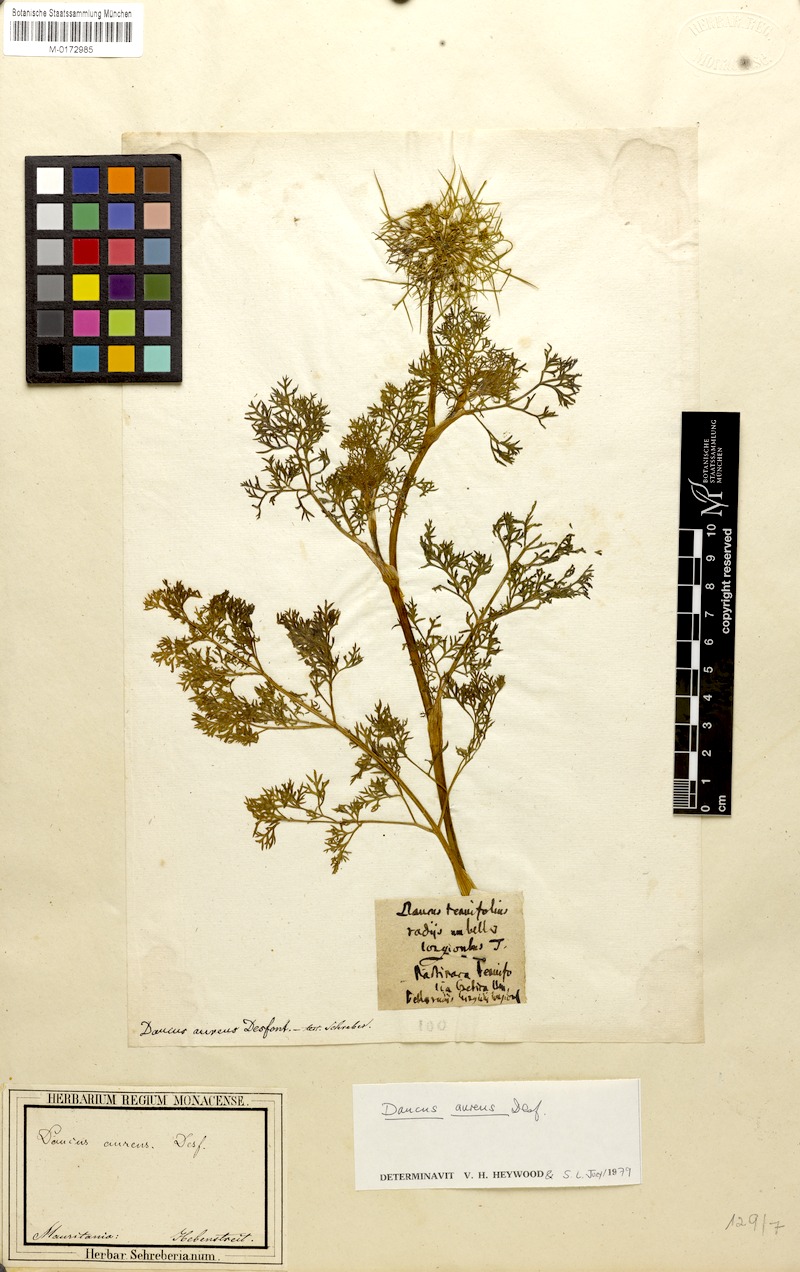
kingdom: Plantae
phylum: Tracheophyta
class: Magnoliopsida
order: Apiales
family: Apiaceae
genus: Daucus
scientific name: Daucus aureus
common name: Golden carrot
